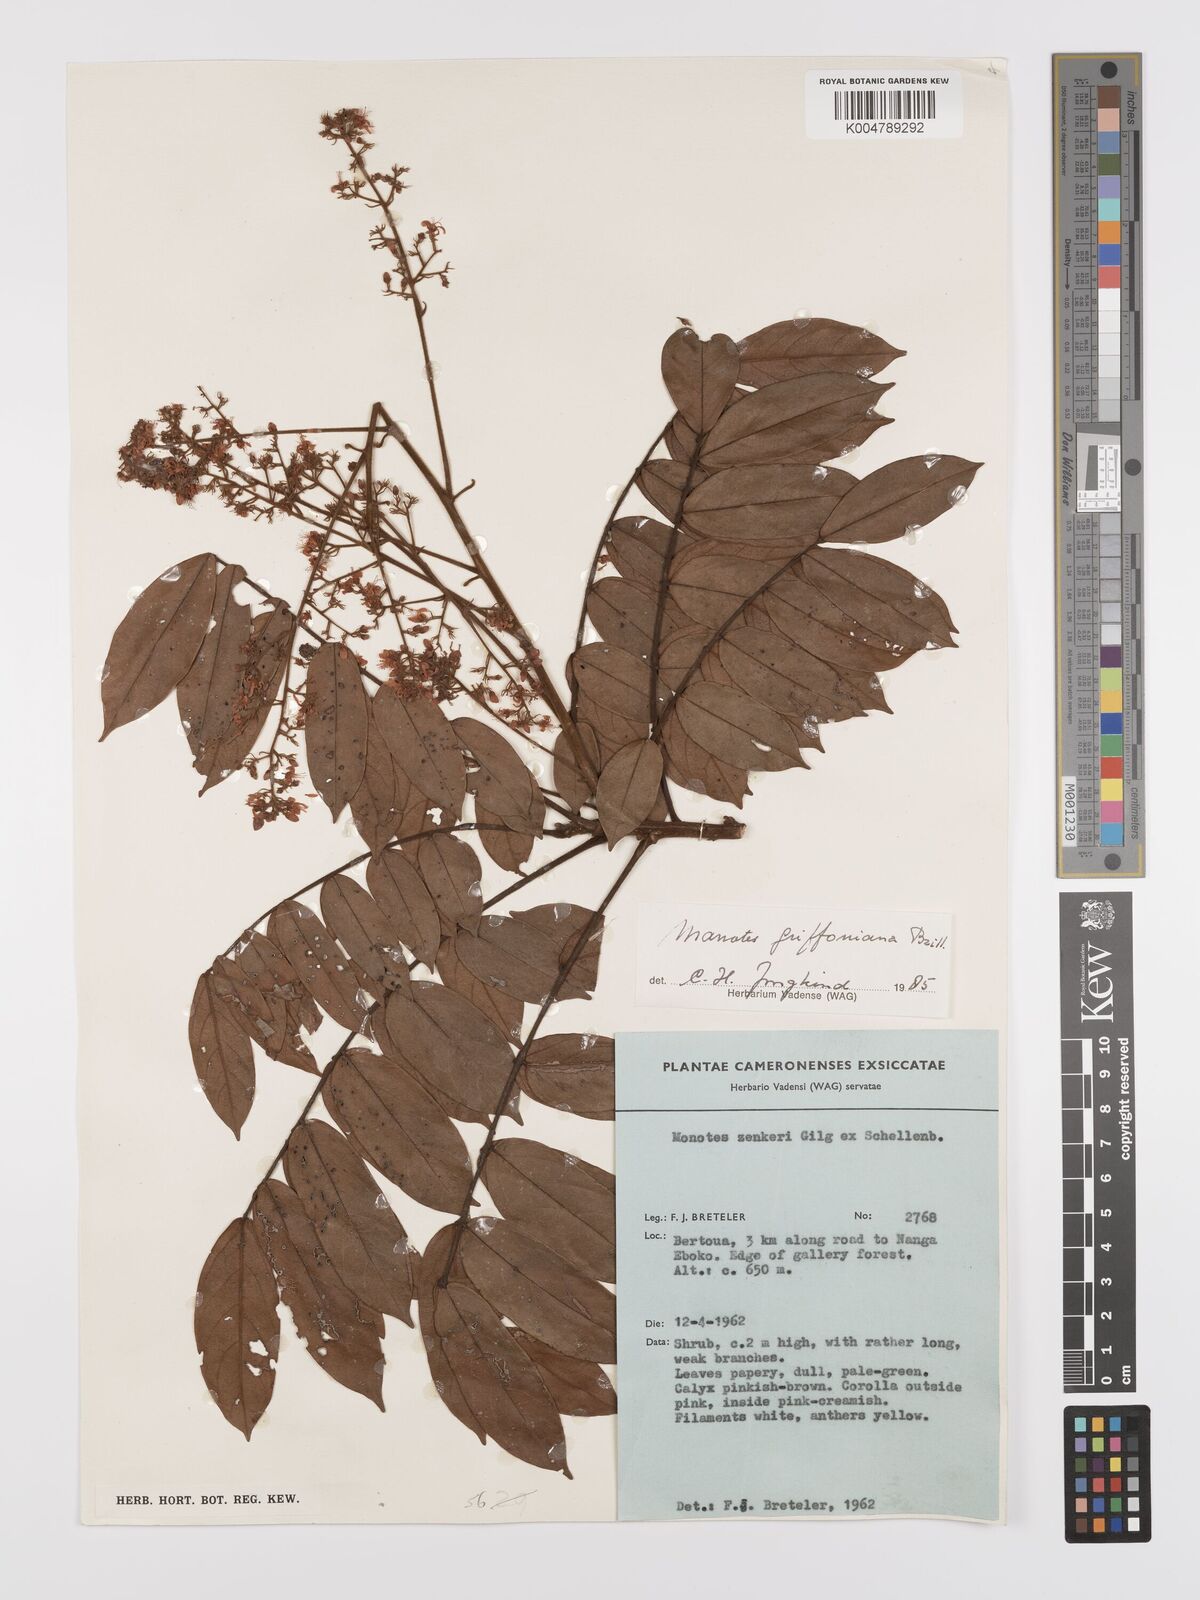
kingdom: Plantae
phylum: Tracheophyta
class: Magnoliopsida
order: Oxalidales
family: Connaraceae
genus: Manotes
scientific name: Manotes griffoniana
